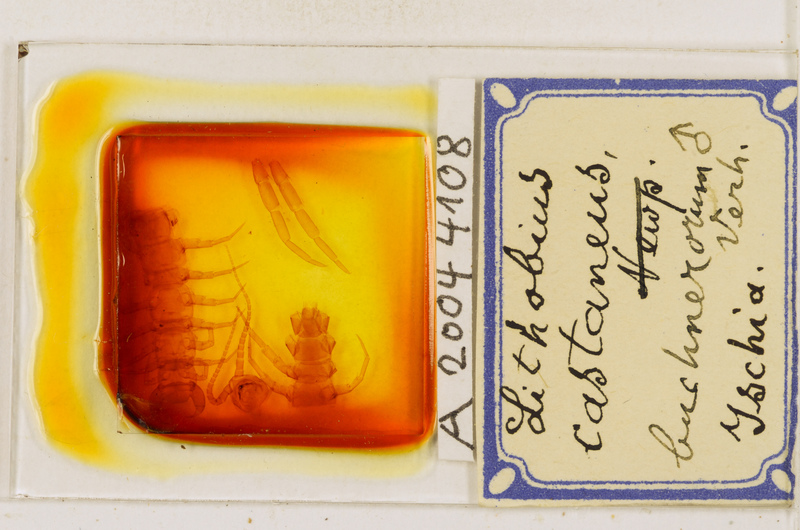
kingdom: Animalia
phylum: Arthropoda
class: Chilopoda
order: Lithobiomorpha
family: Lithobiidae
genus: Lithobius
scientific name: Lithobius castaneus
